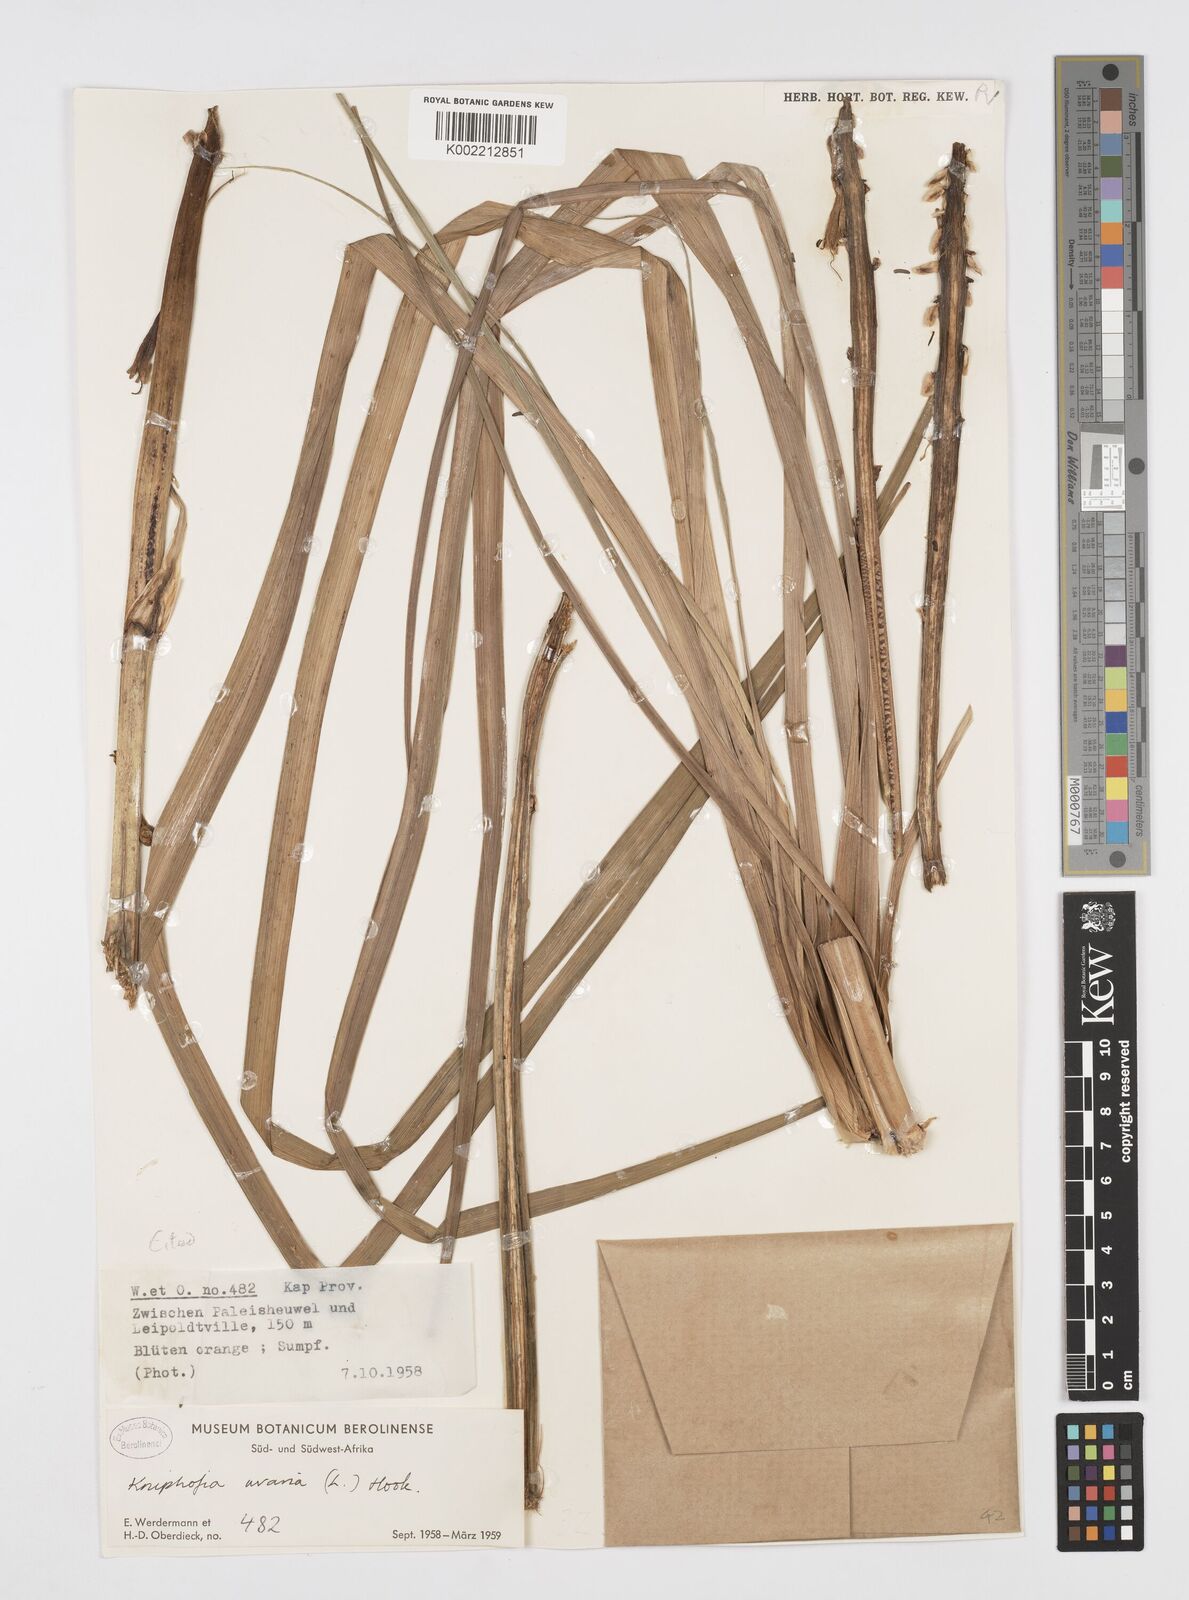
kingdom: Plantae
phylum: Tracheophyta
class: Liliopsida
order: Asparagales
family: Asphodelaceae
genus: Kniphofia
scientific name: Kniphofia uvaria
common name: Red-hot-poker
